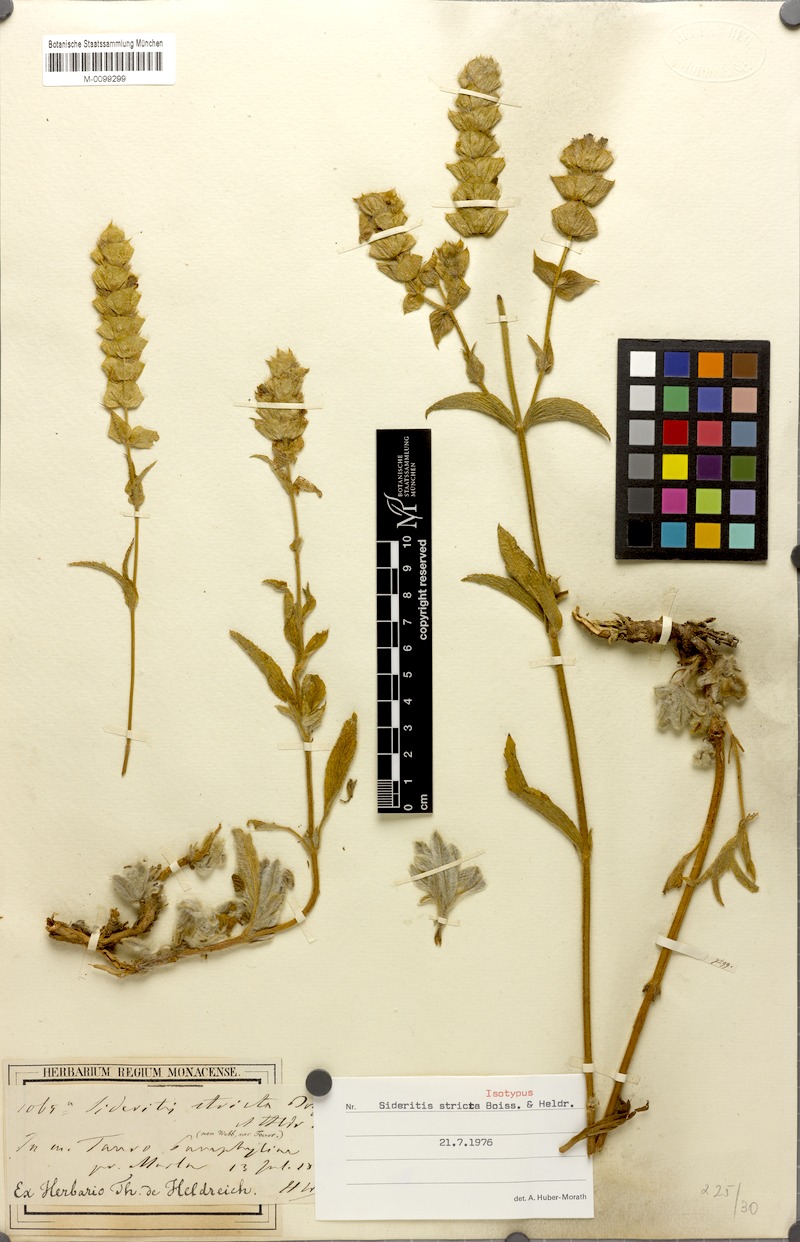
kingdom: Plantae
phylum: Tracheophyta
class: Magnoliopsida
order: Lamiales
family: Lamiaceae
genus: Sideritis
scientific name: Sideritis stricta
